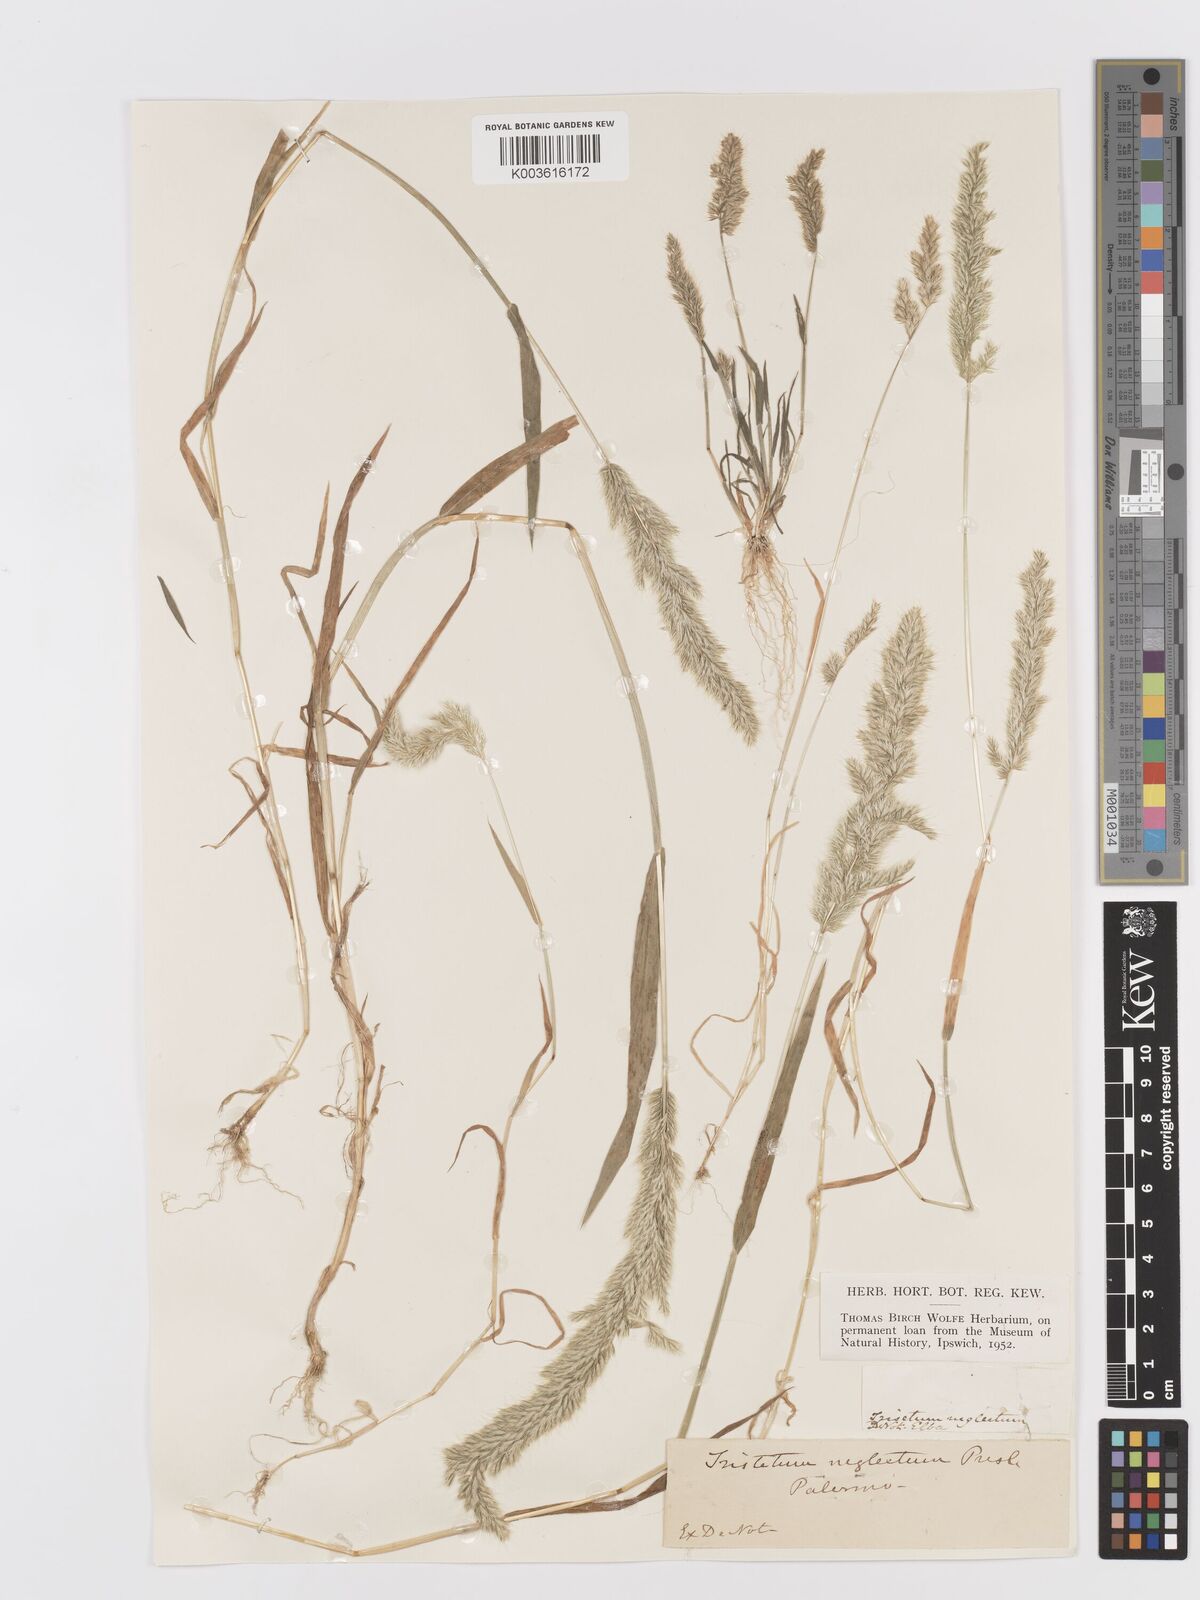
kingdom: Plantae
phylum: Tracheophyta
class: Liliopsida
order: Poales
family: Poaceae
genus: Trisetaria
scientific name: Trisetaria panicea
